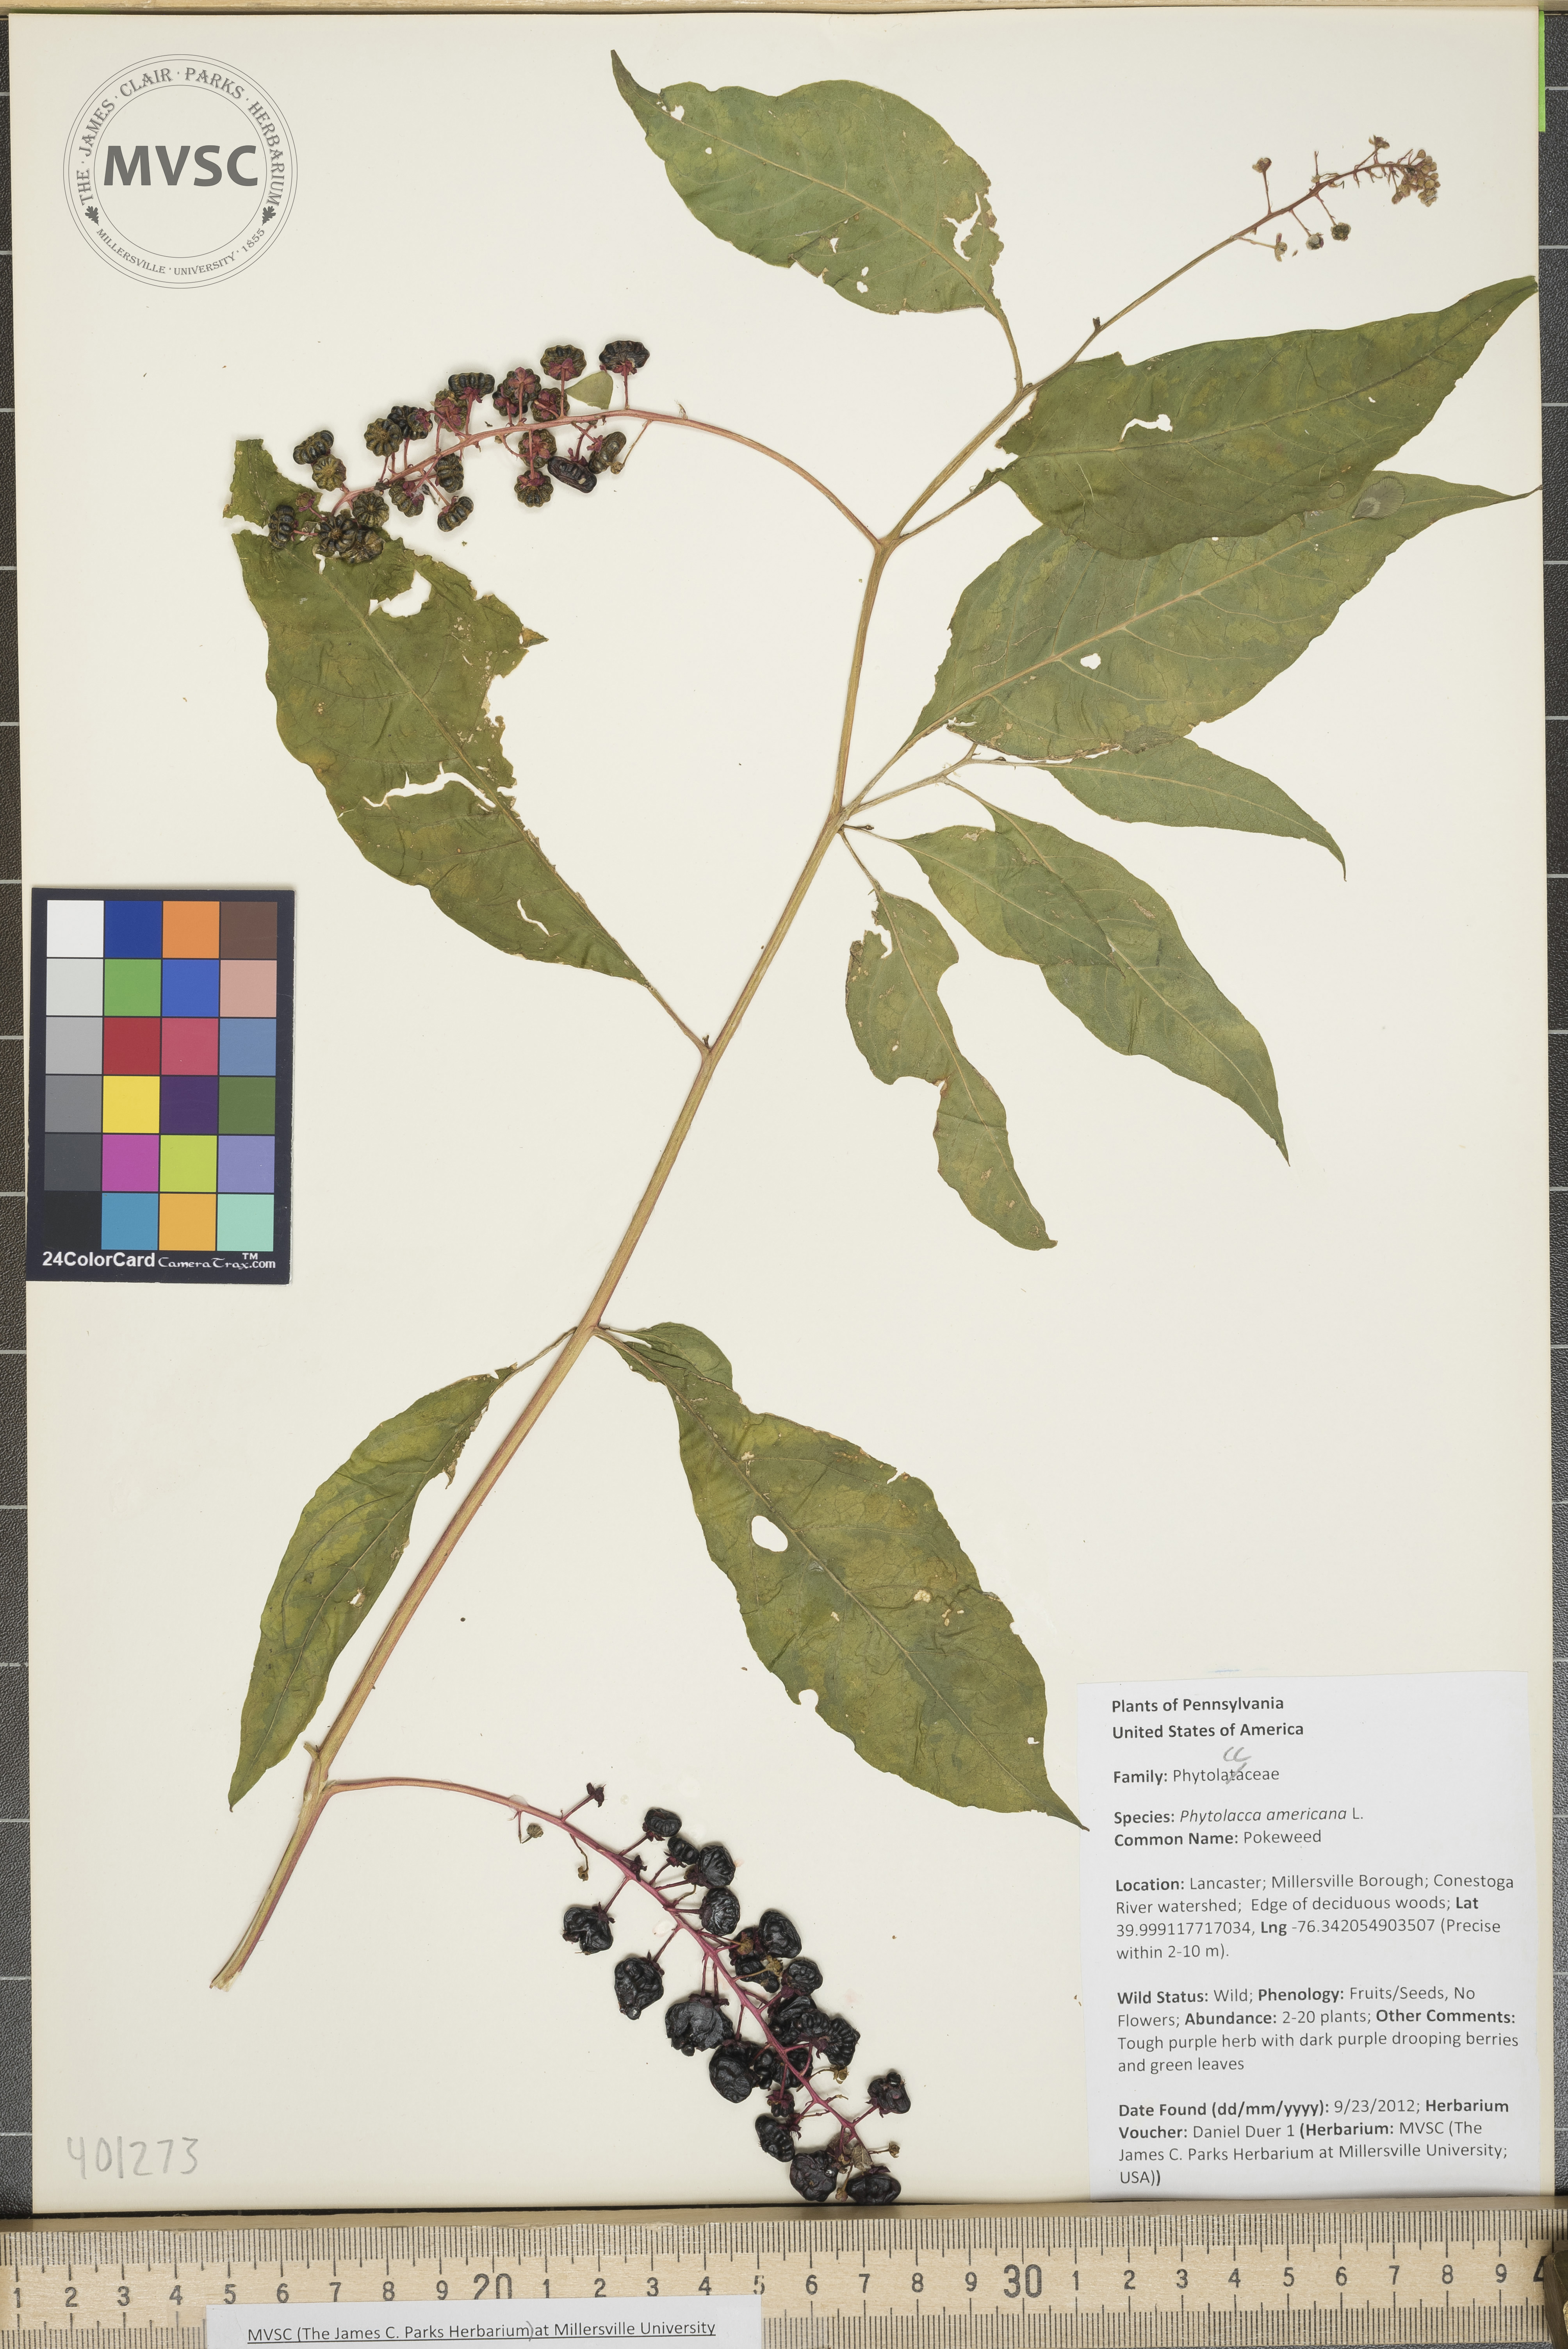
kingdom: Plantae
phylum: Tracheophyta
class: Magnoliopsida
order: Caryophyllales
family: Phytolaccaceae
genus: Phytolacca
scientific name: Phytolacca americana
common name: Pokeweed
